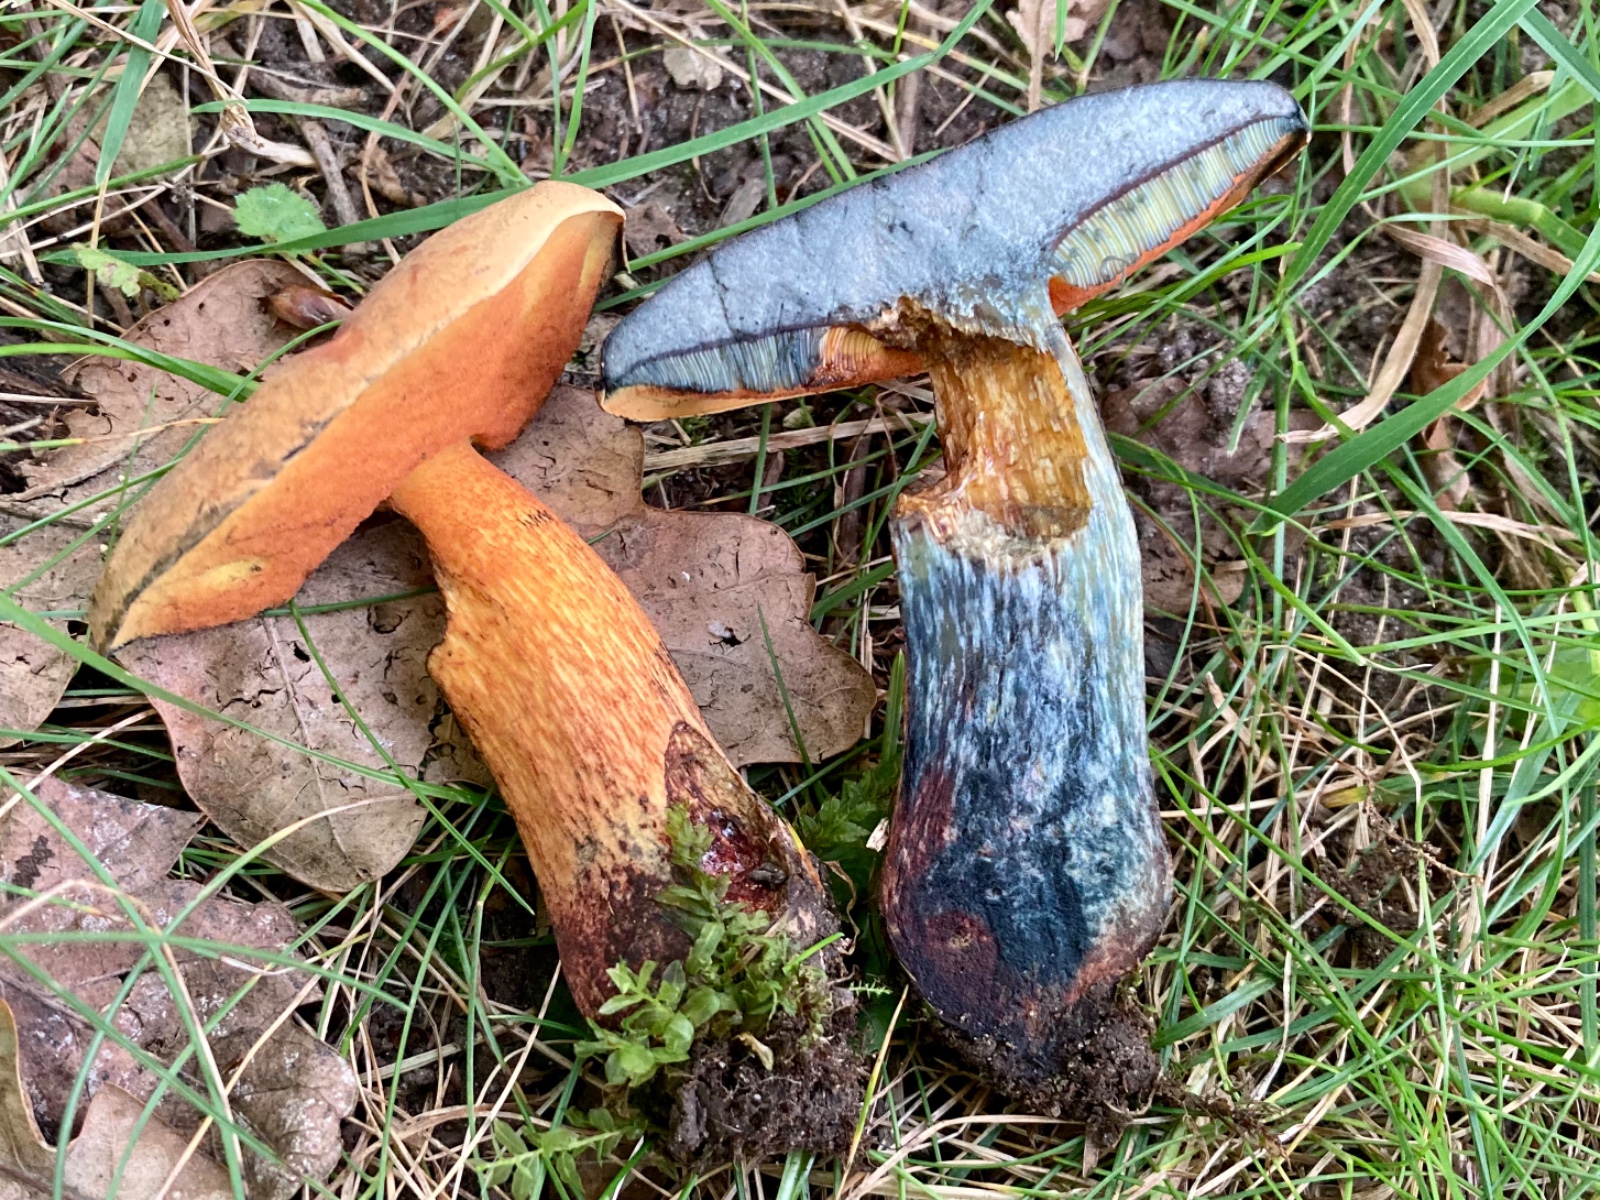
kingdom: Fungi
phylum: Basidiomycota
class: Agaricomycetes
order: Boletales
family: Boletaceae
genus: Suillellus
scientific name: Suillellus luridus
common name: netstokket indigorørhat
